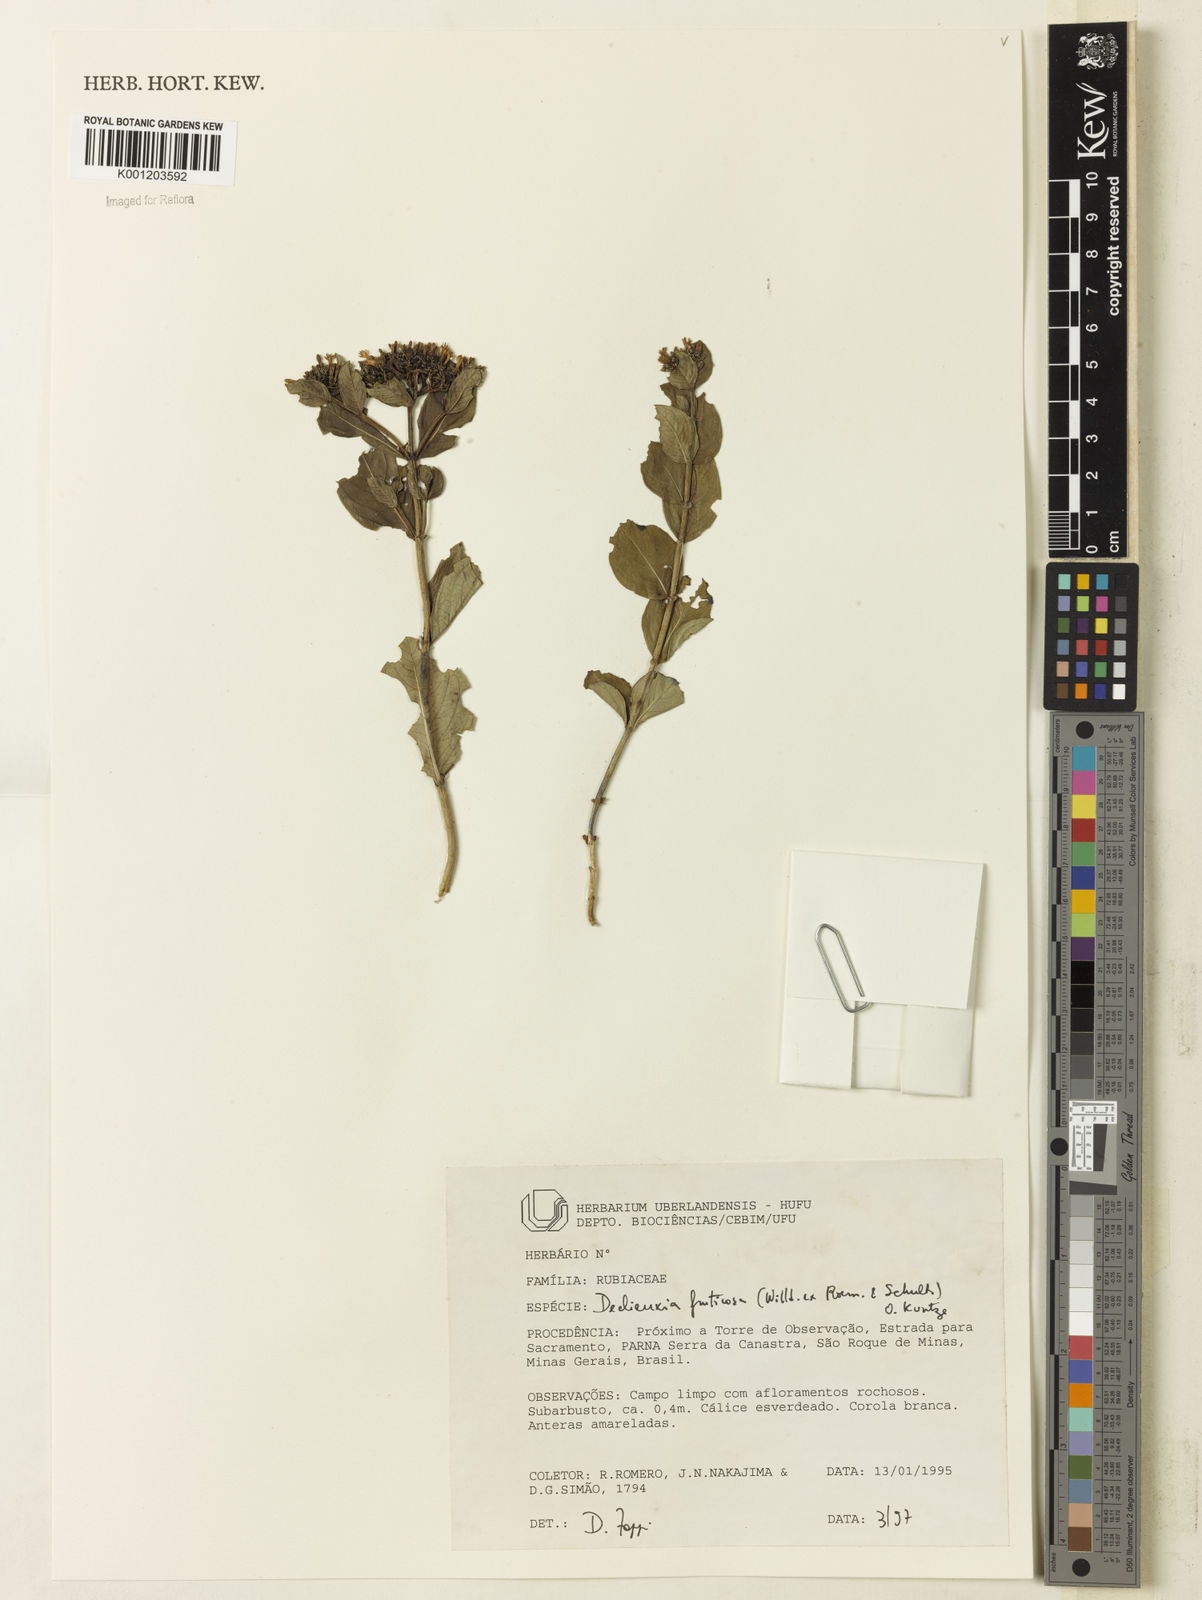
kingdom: Plantae
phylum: Tracheophyta
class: Magnoliopsida
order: Gentianales
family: Rubiaceae
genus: Declieuxia
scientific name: Declieuxia fruticosa
